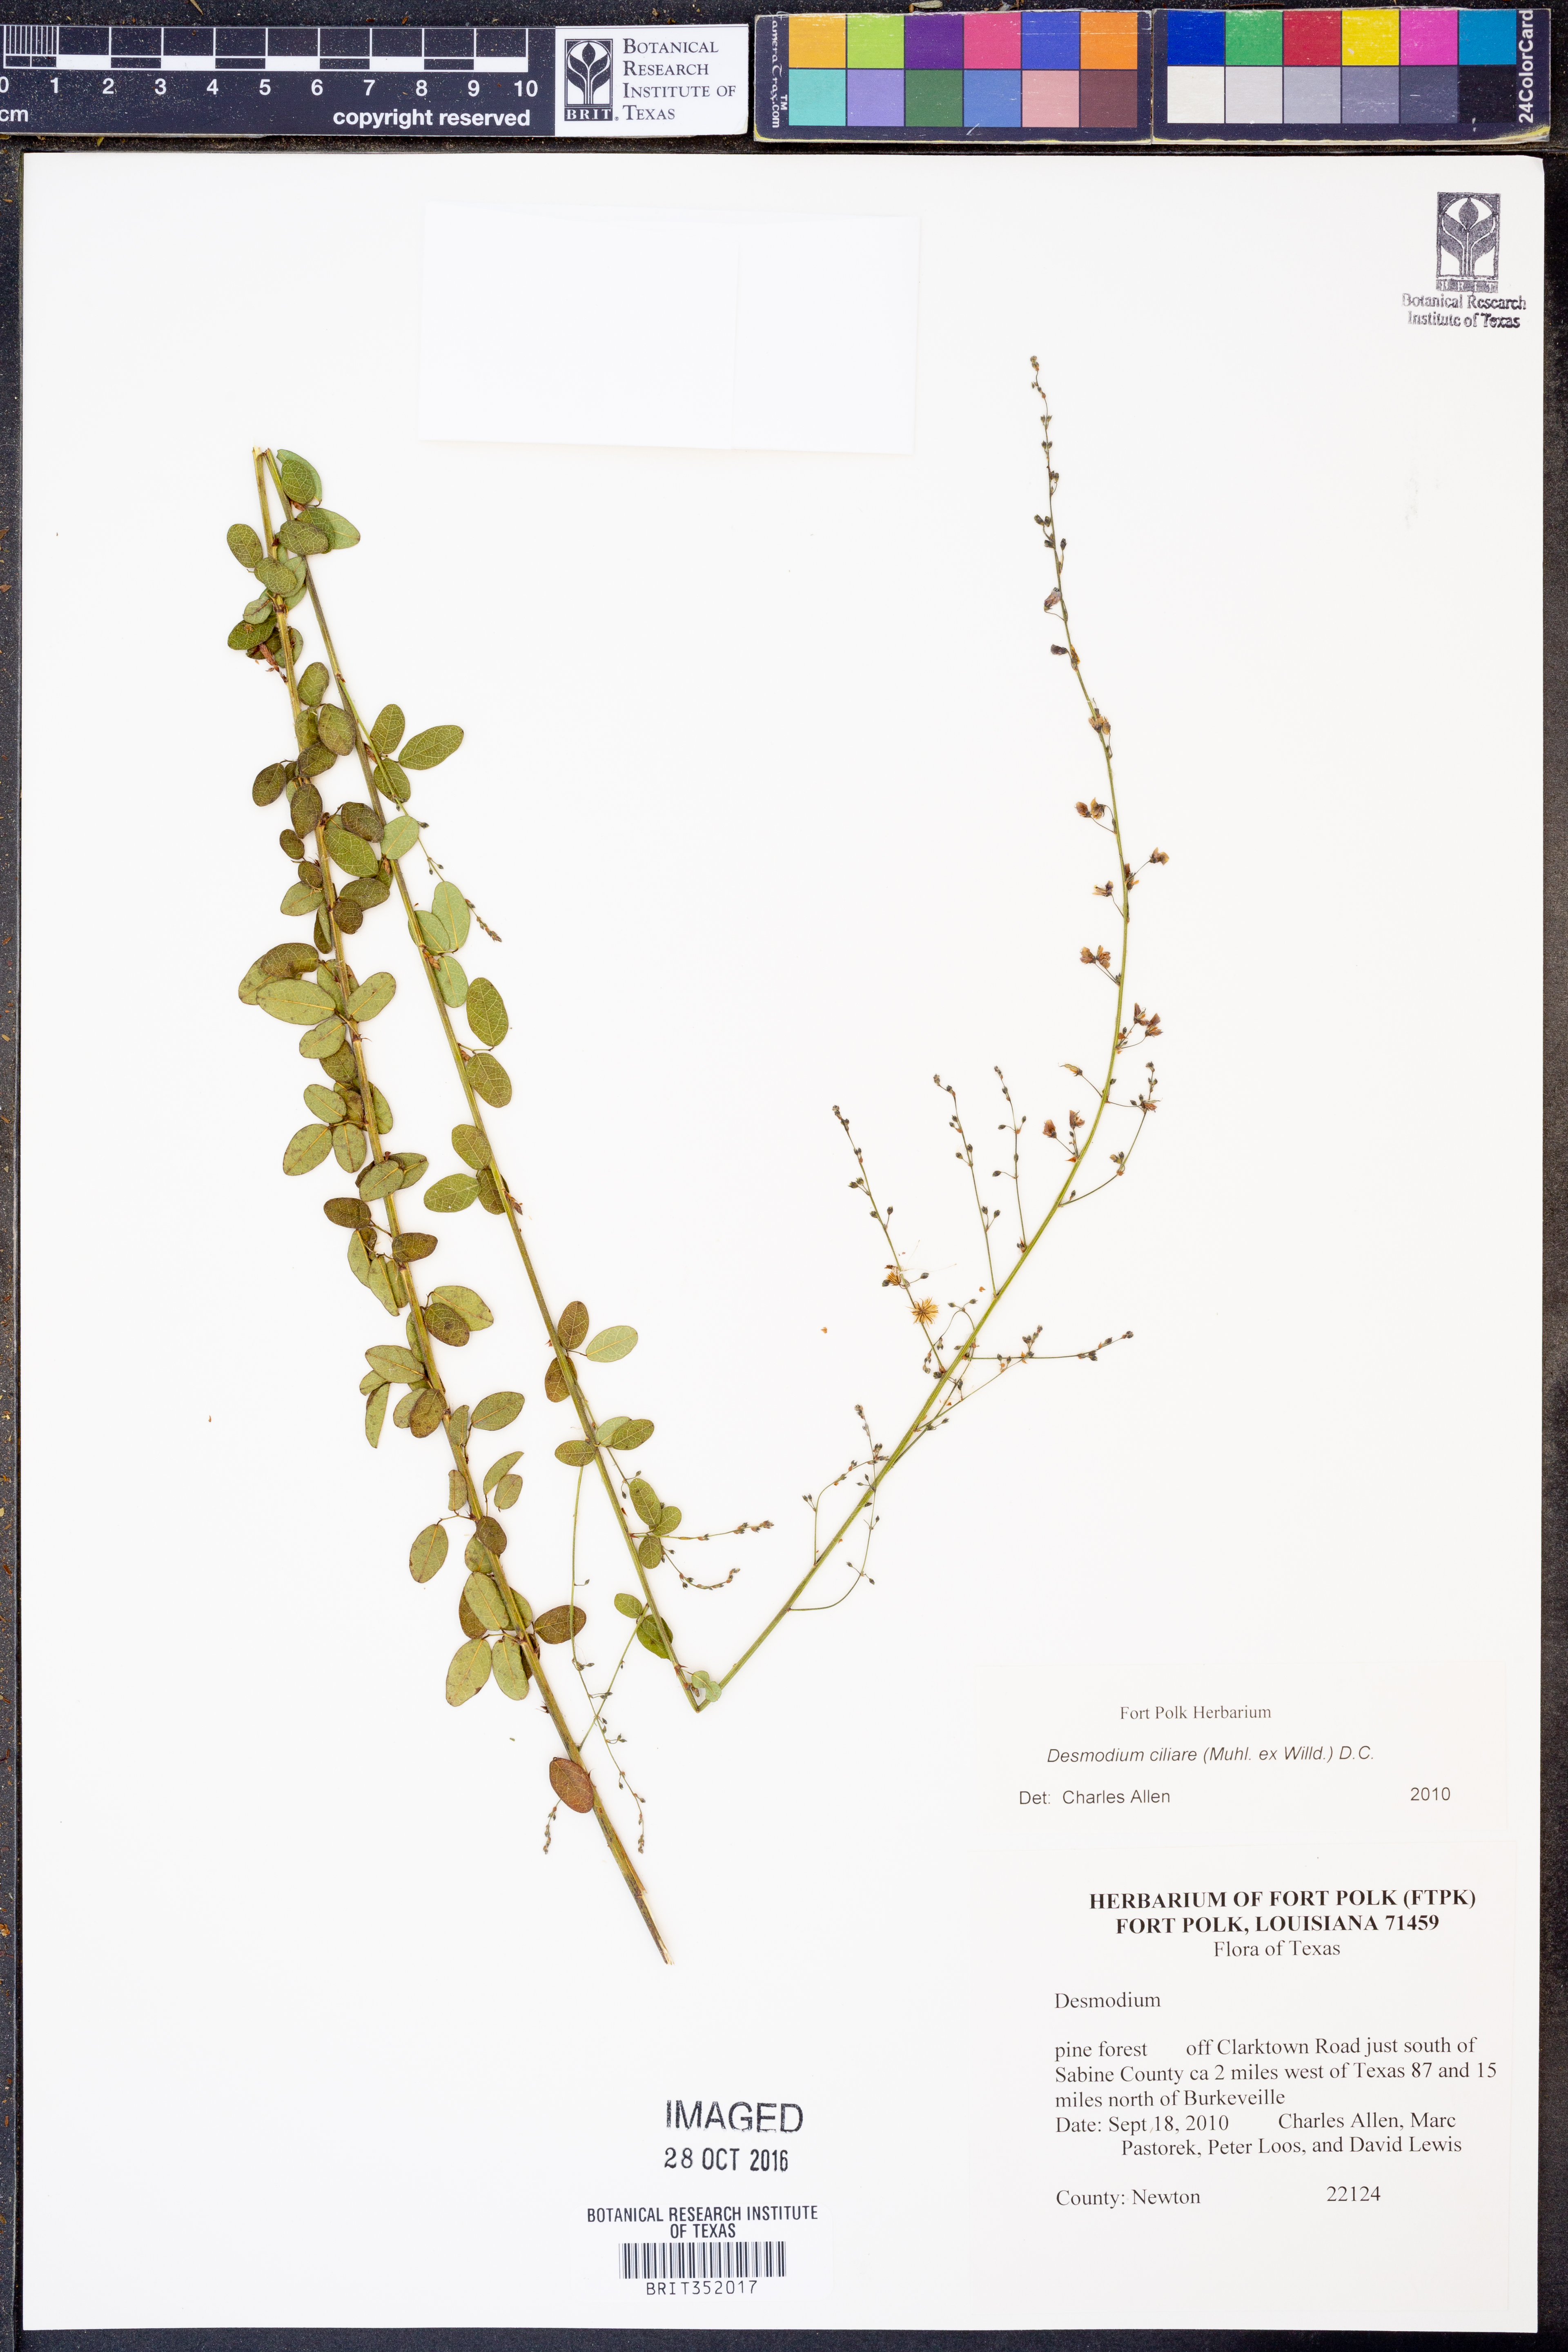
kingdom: Plantae
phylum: Tracheophyta
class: Magnoliopsida
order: Fabales
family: Fabaceae
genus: Desmodium
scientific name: Desmodium ciliare
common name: Hairy small-leaf ticktrefoil
